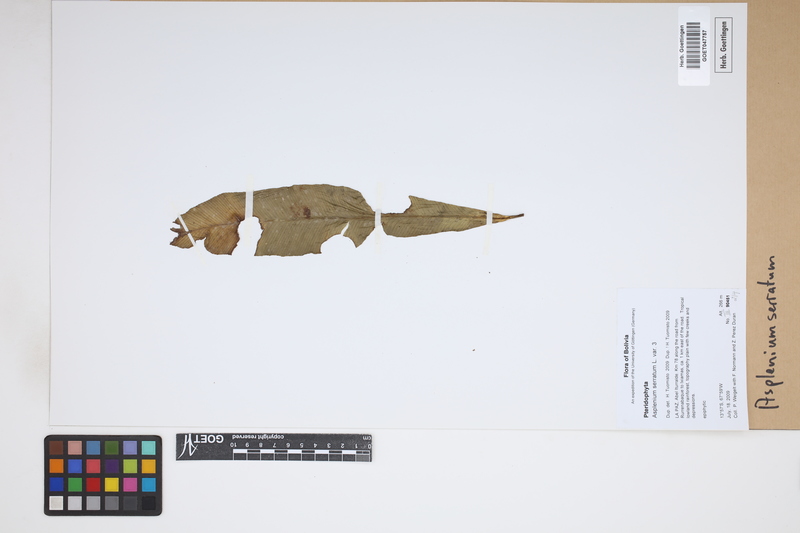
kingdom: Plantae
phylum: Tracheophyta
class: Polypodiopsida
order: Polypodiales
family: Aspleniaceae
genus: Asplenium
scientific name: Asplenium serratum
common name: Wild birdnest fern
